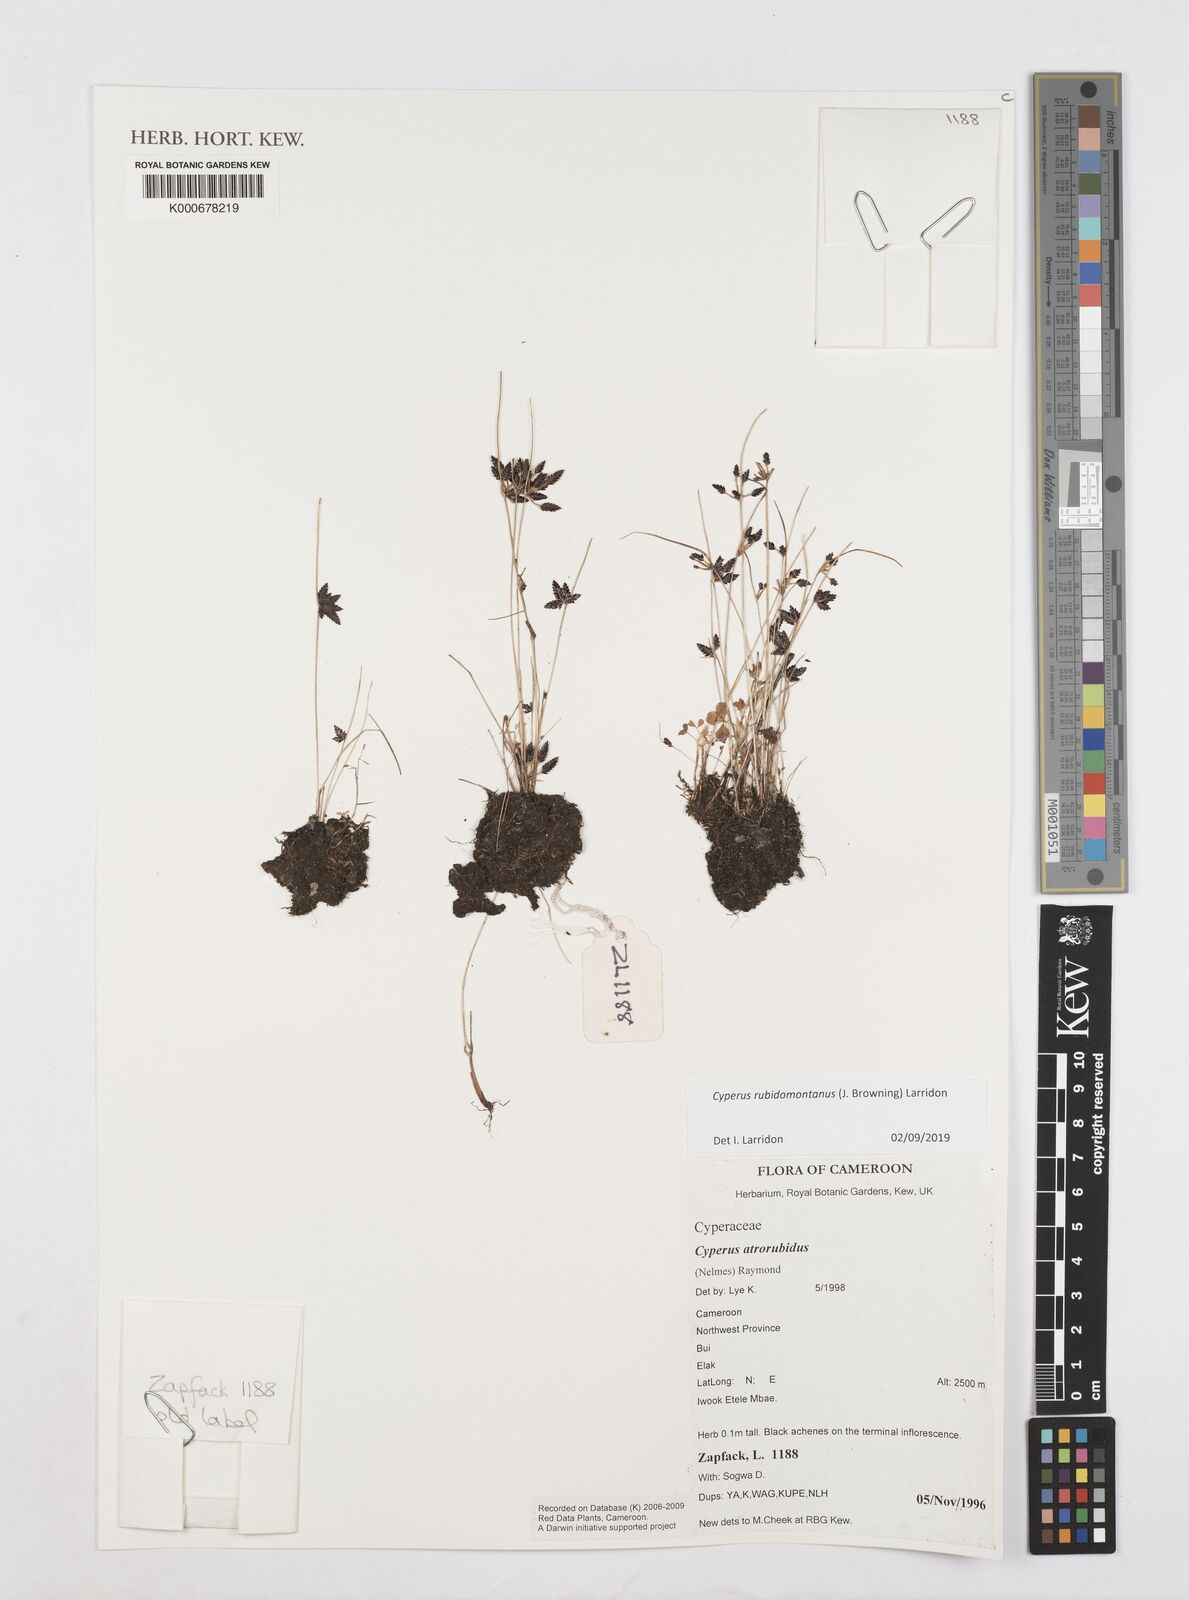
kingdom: Plantae
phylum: Tracheophyta
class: Liliopsida
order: Poales
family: Cyperaceae
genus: Cyperus
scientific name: Cyperus atrorubidus
